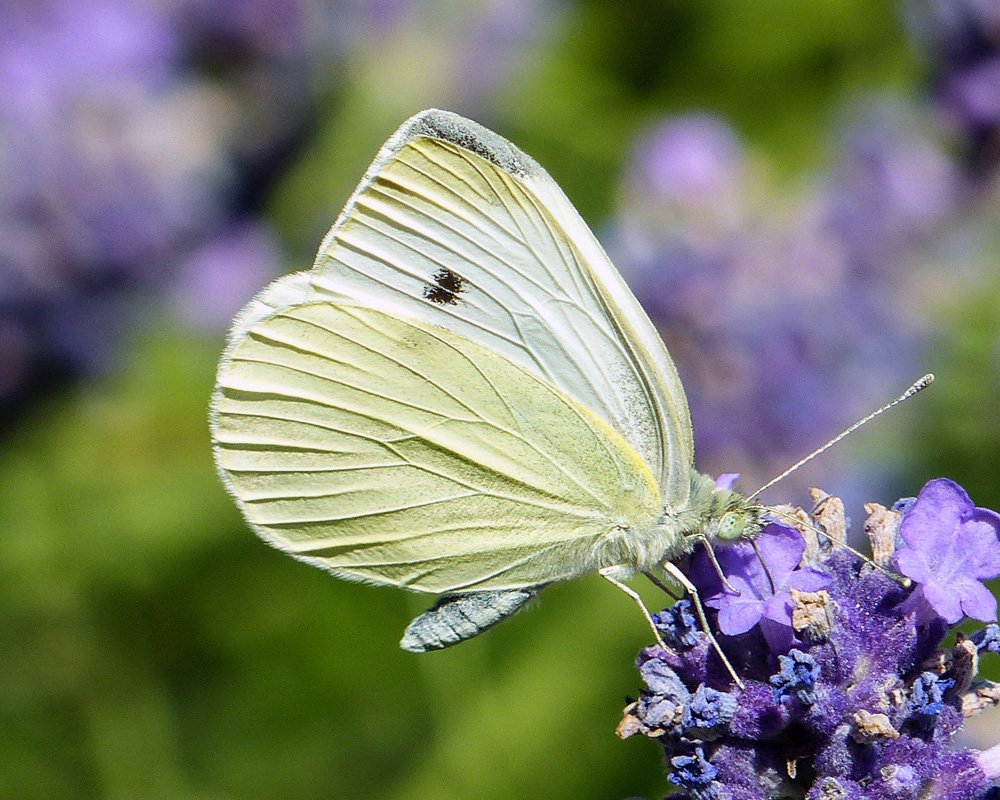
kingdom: Animalia
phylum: Arthropoda
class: Insecta
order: Lepidoptera
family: Pieridae
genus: Pieris
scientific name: Pieris rapae
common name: Cabbage White
